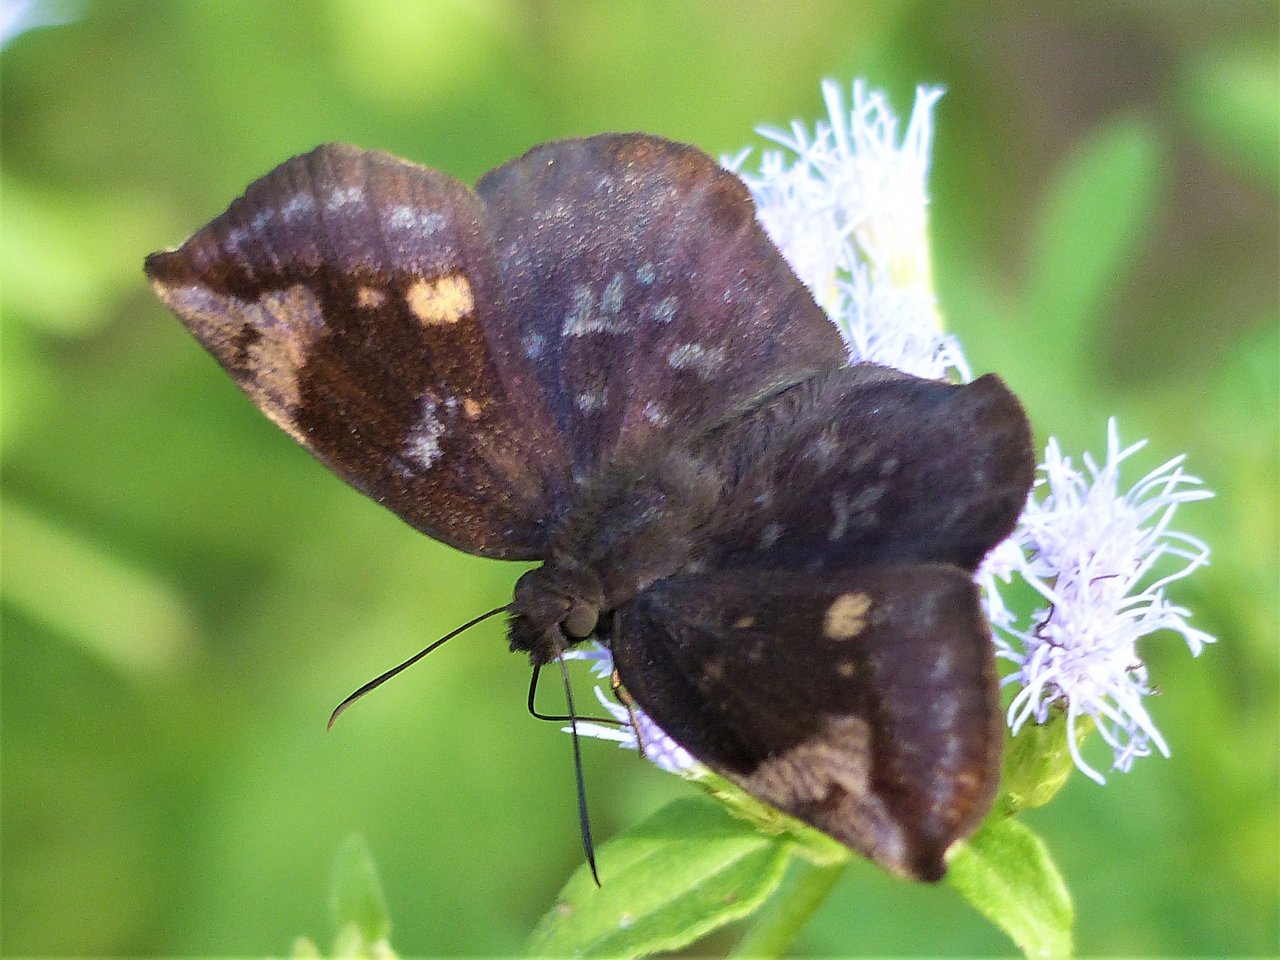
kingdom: Animalia
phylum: Arthropoda
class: Insecta
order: Lepidoptera
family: Hesperiidae
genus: Achlyodes
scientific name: Achlyodes thraso
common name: Sickle-winged Skipper
